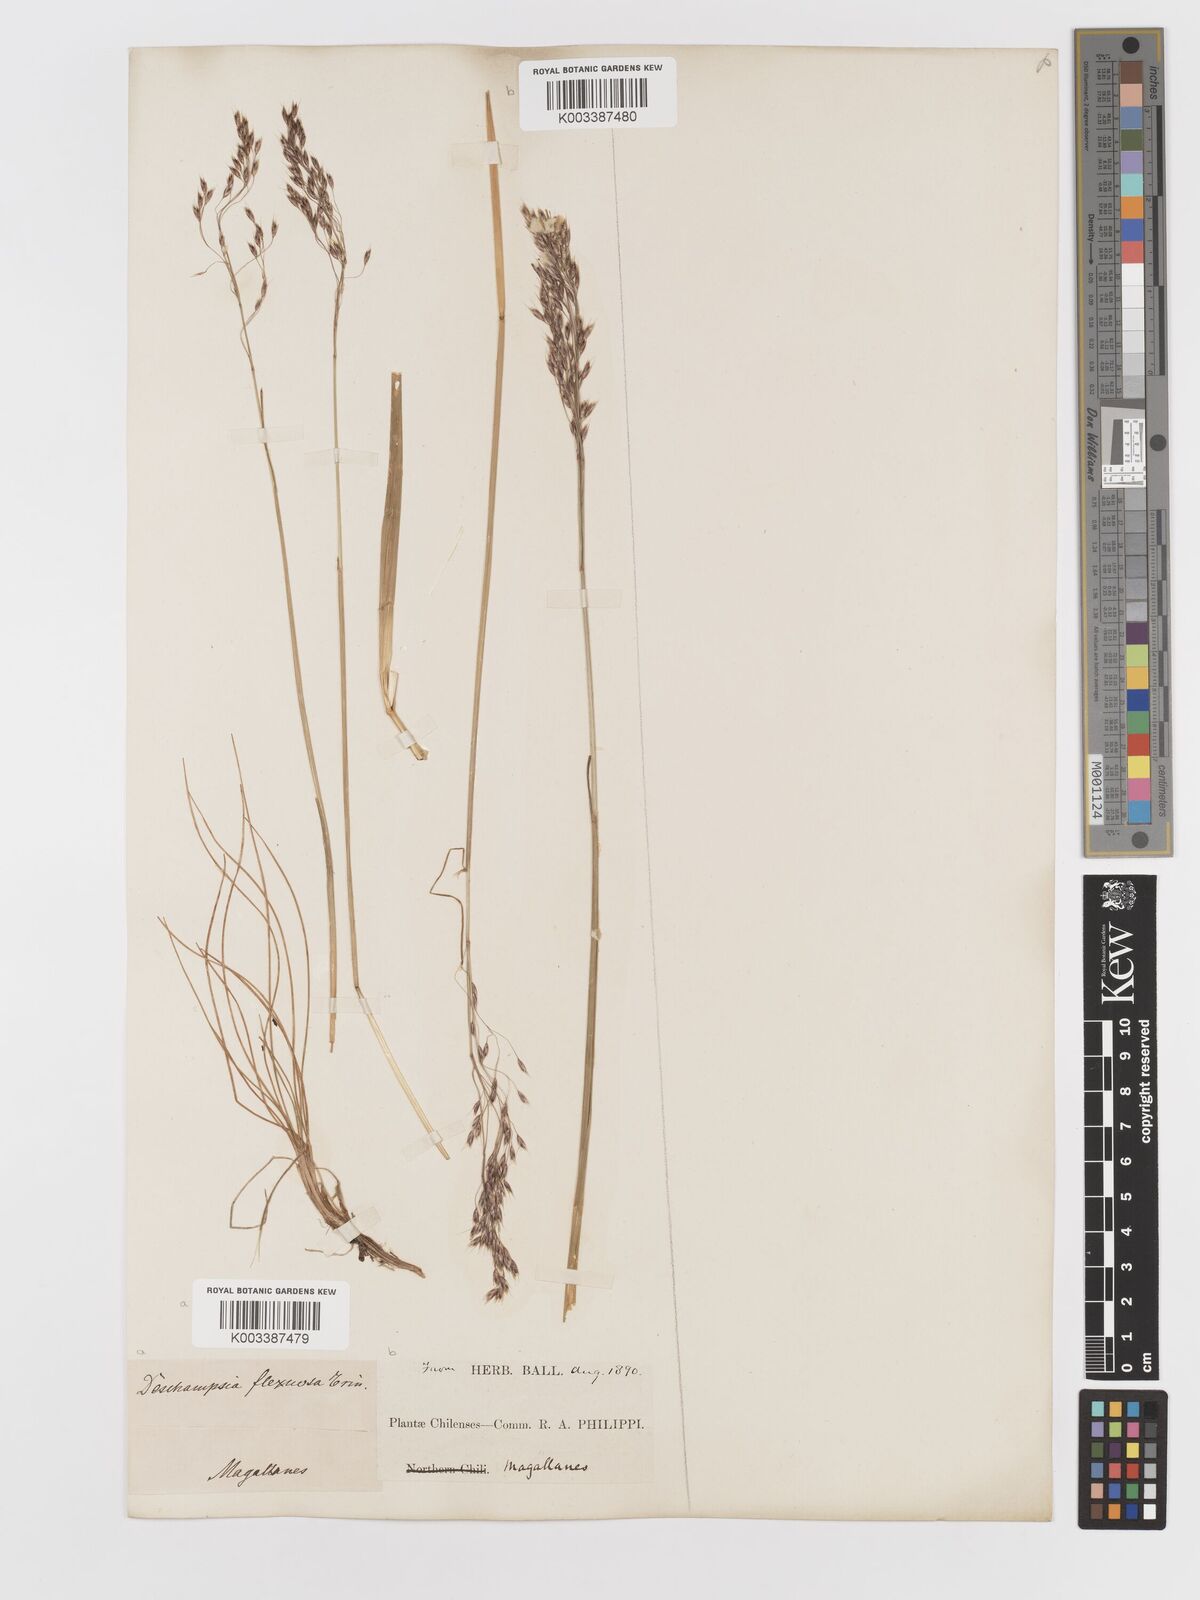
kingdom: Plantae
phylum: Tracheophyta
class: Liliopsida
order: Poales
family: Poaceae
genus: Avenella
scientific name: Avenella flexuosa
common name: Wavy hairgrass
